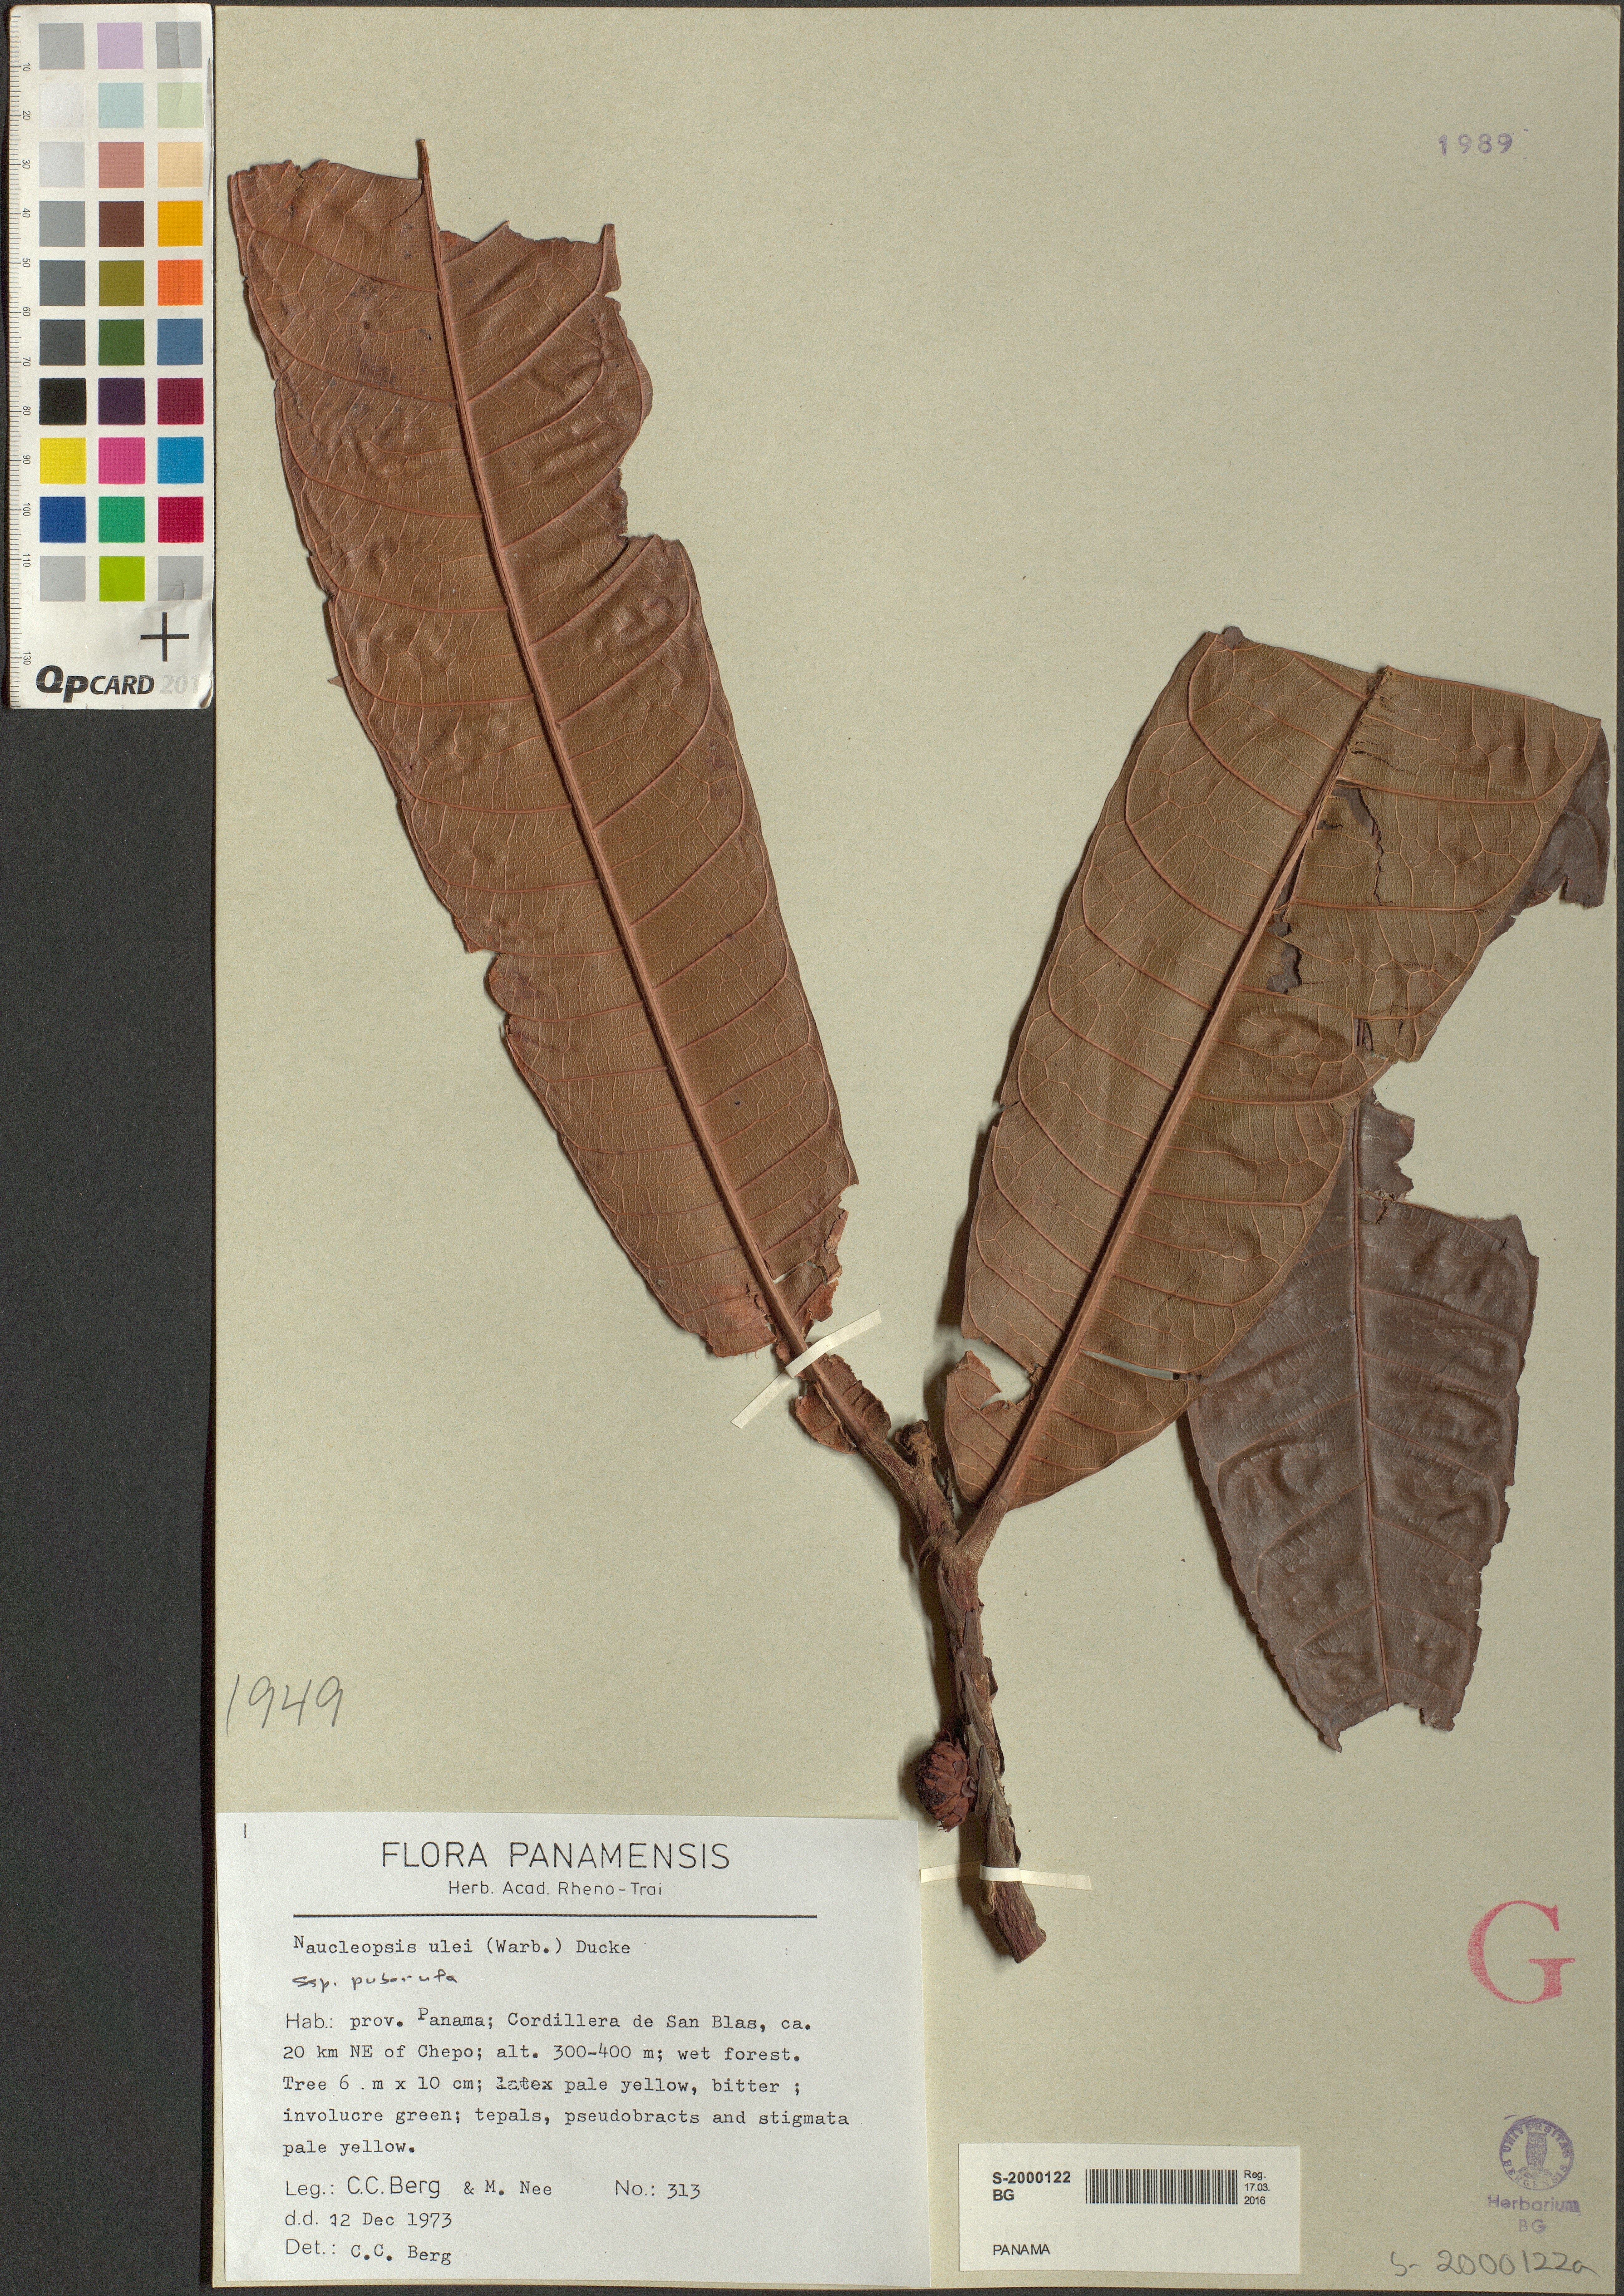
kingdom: Plantae
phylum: Tracheophyta
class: Magnoliopsida
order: Rosales
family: Moraceae
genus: Naucleopsis
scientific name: Naucleopsis ulei
